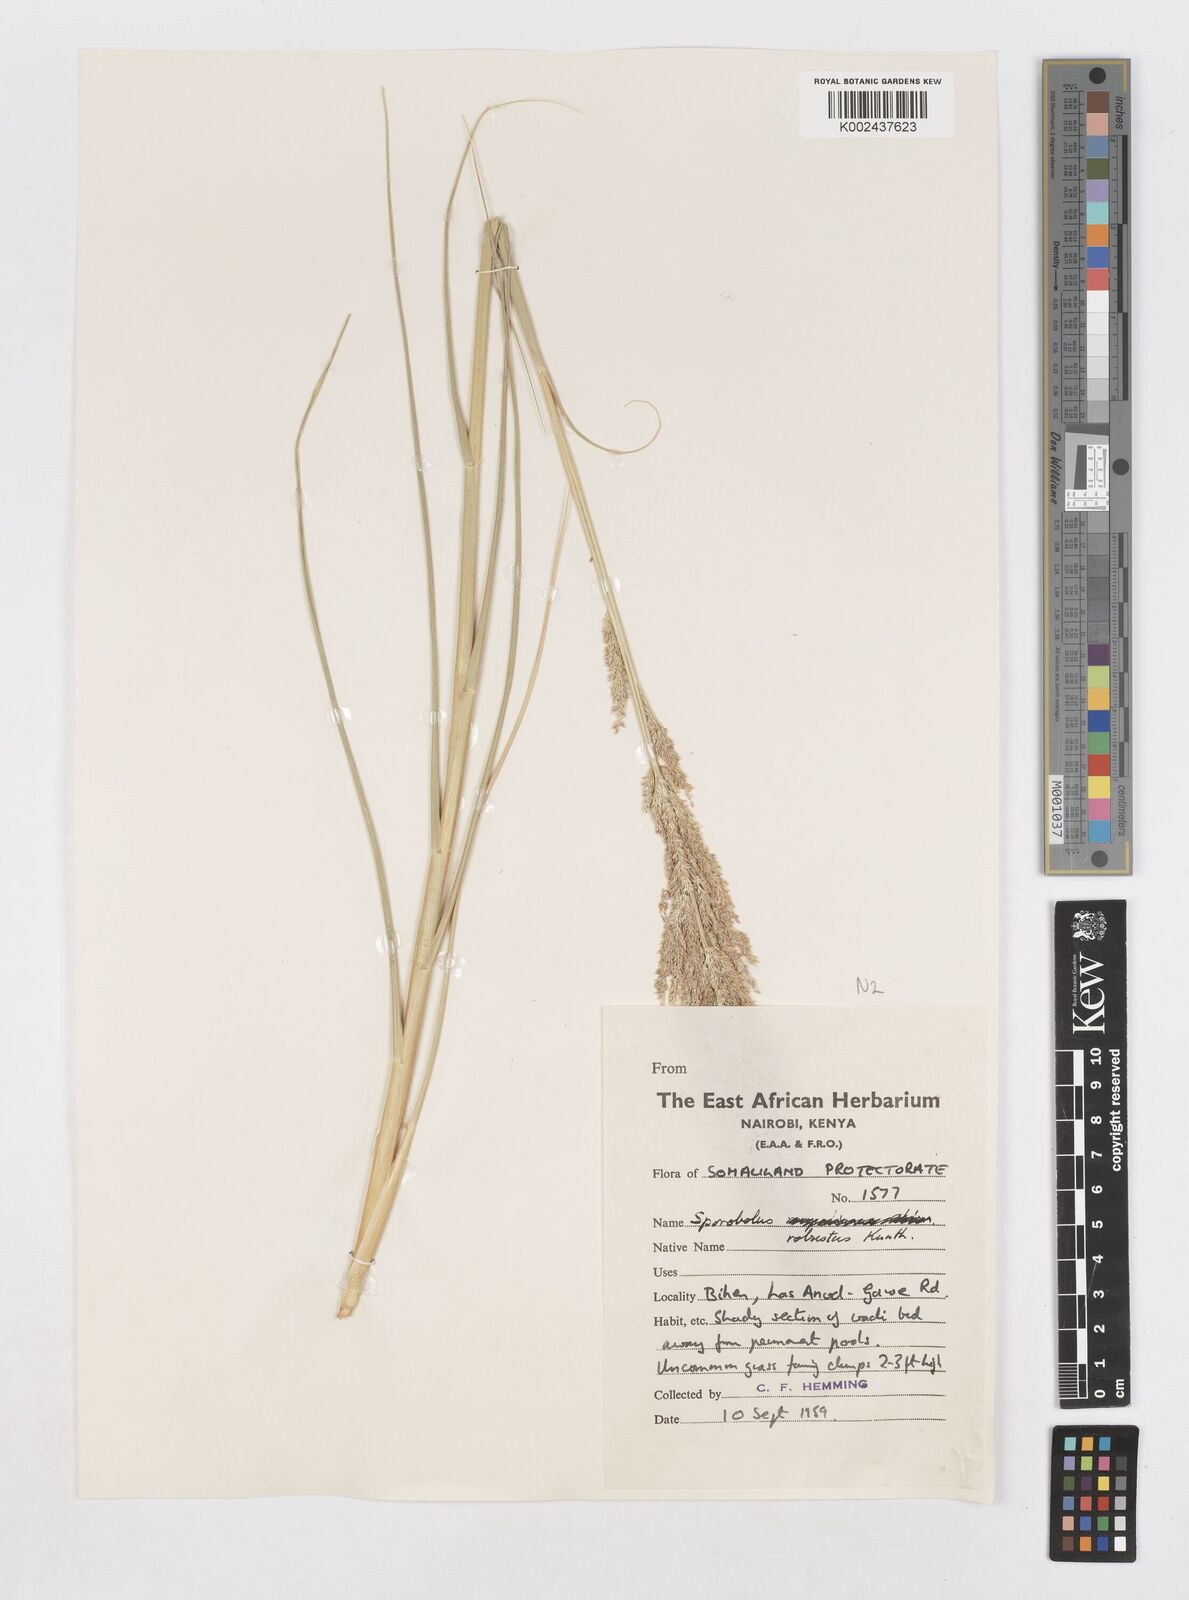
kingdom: Plantae
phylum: Tracheophyta
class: Liliopsida
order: Poales
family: Poaceae
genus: Sporobolus
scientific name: Sporobolus consimilis
